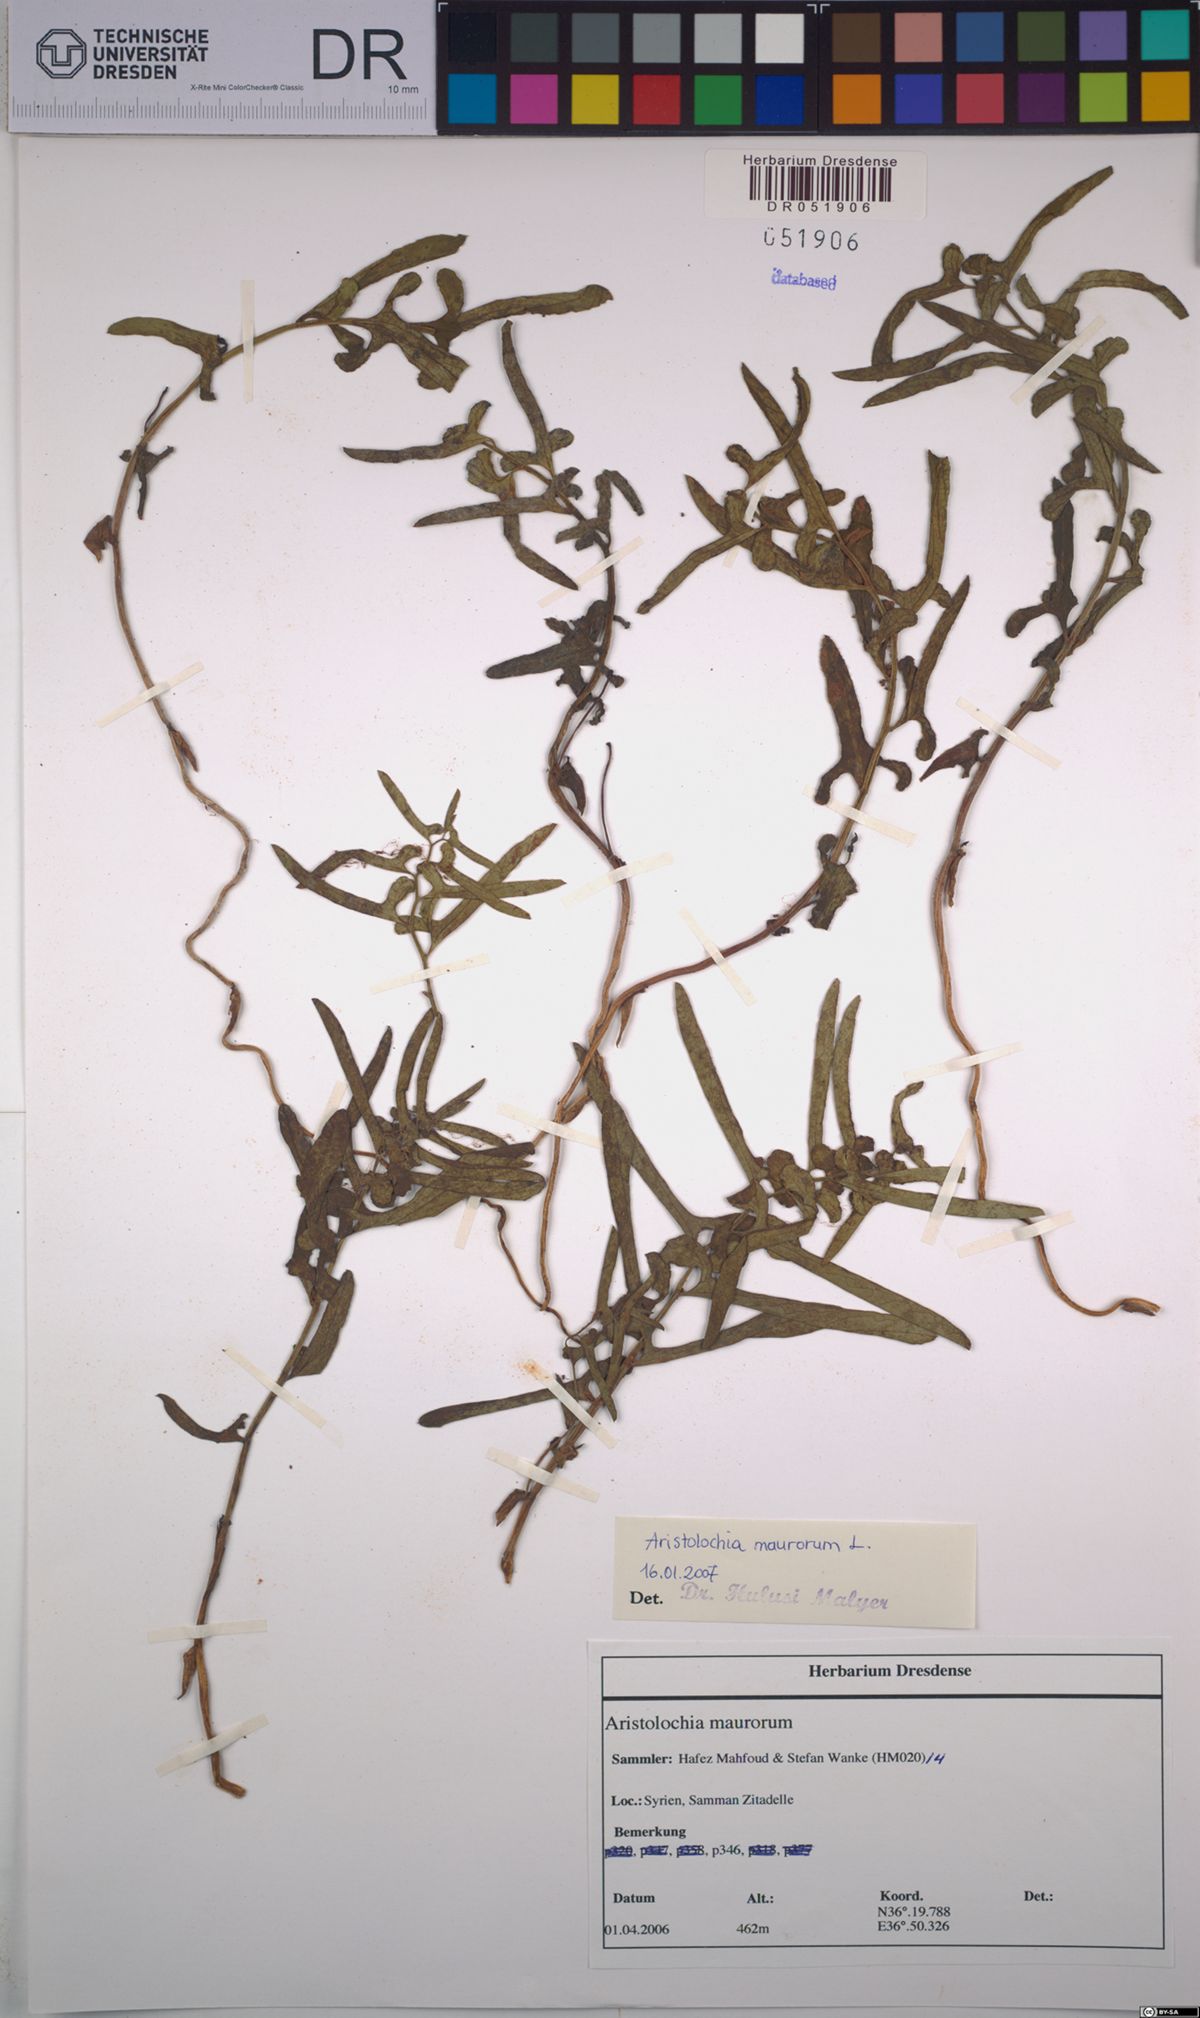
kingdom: Plantae
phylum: Tracheophyta
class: Magnoliopsida
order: Piperales
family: Aristolochiaceae
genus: Aristolochia
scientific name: Aristolochia maurorum
